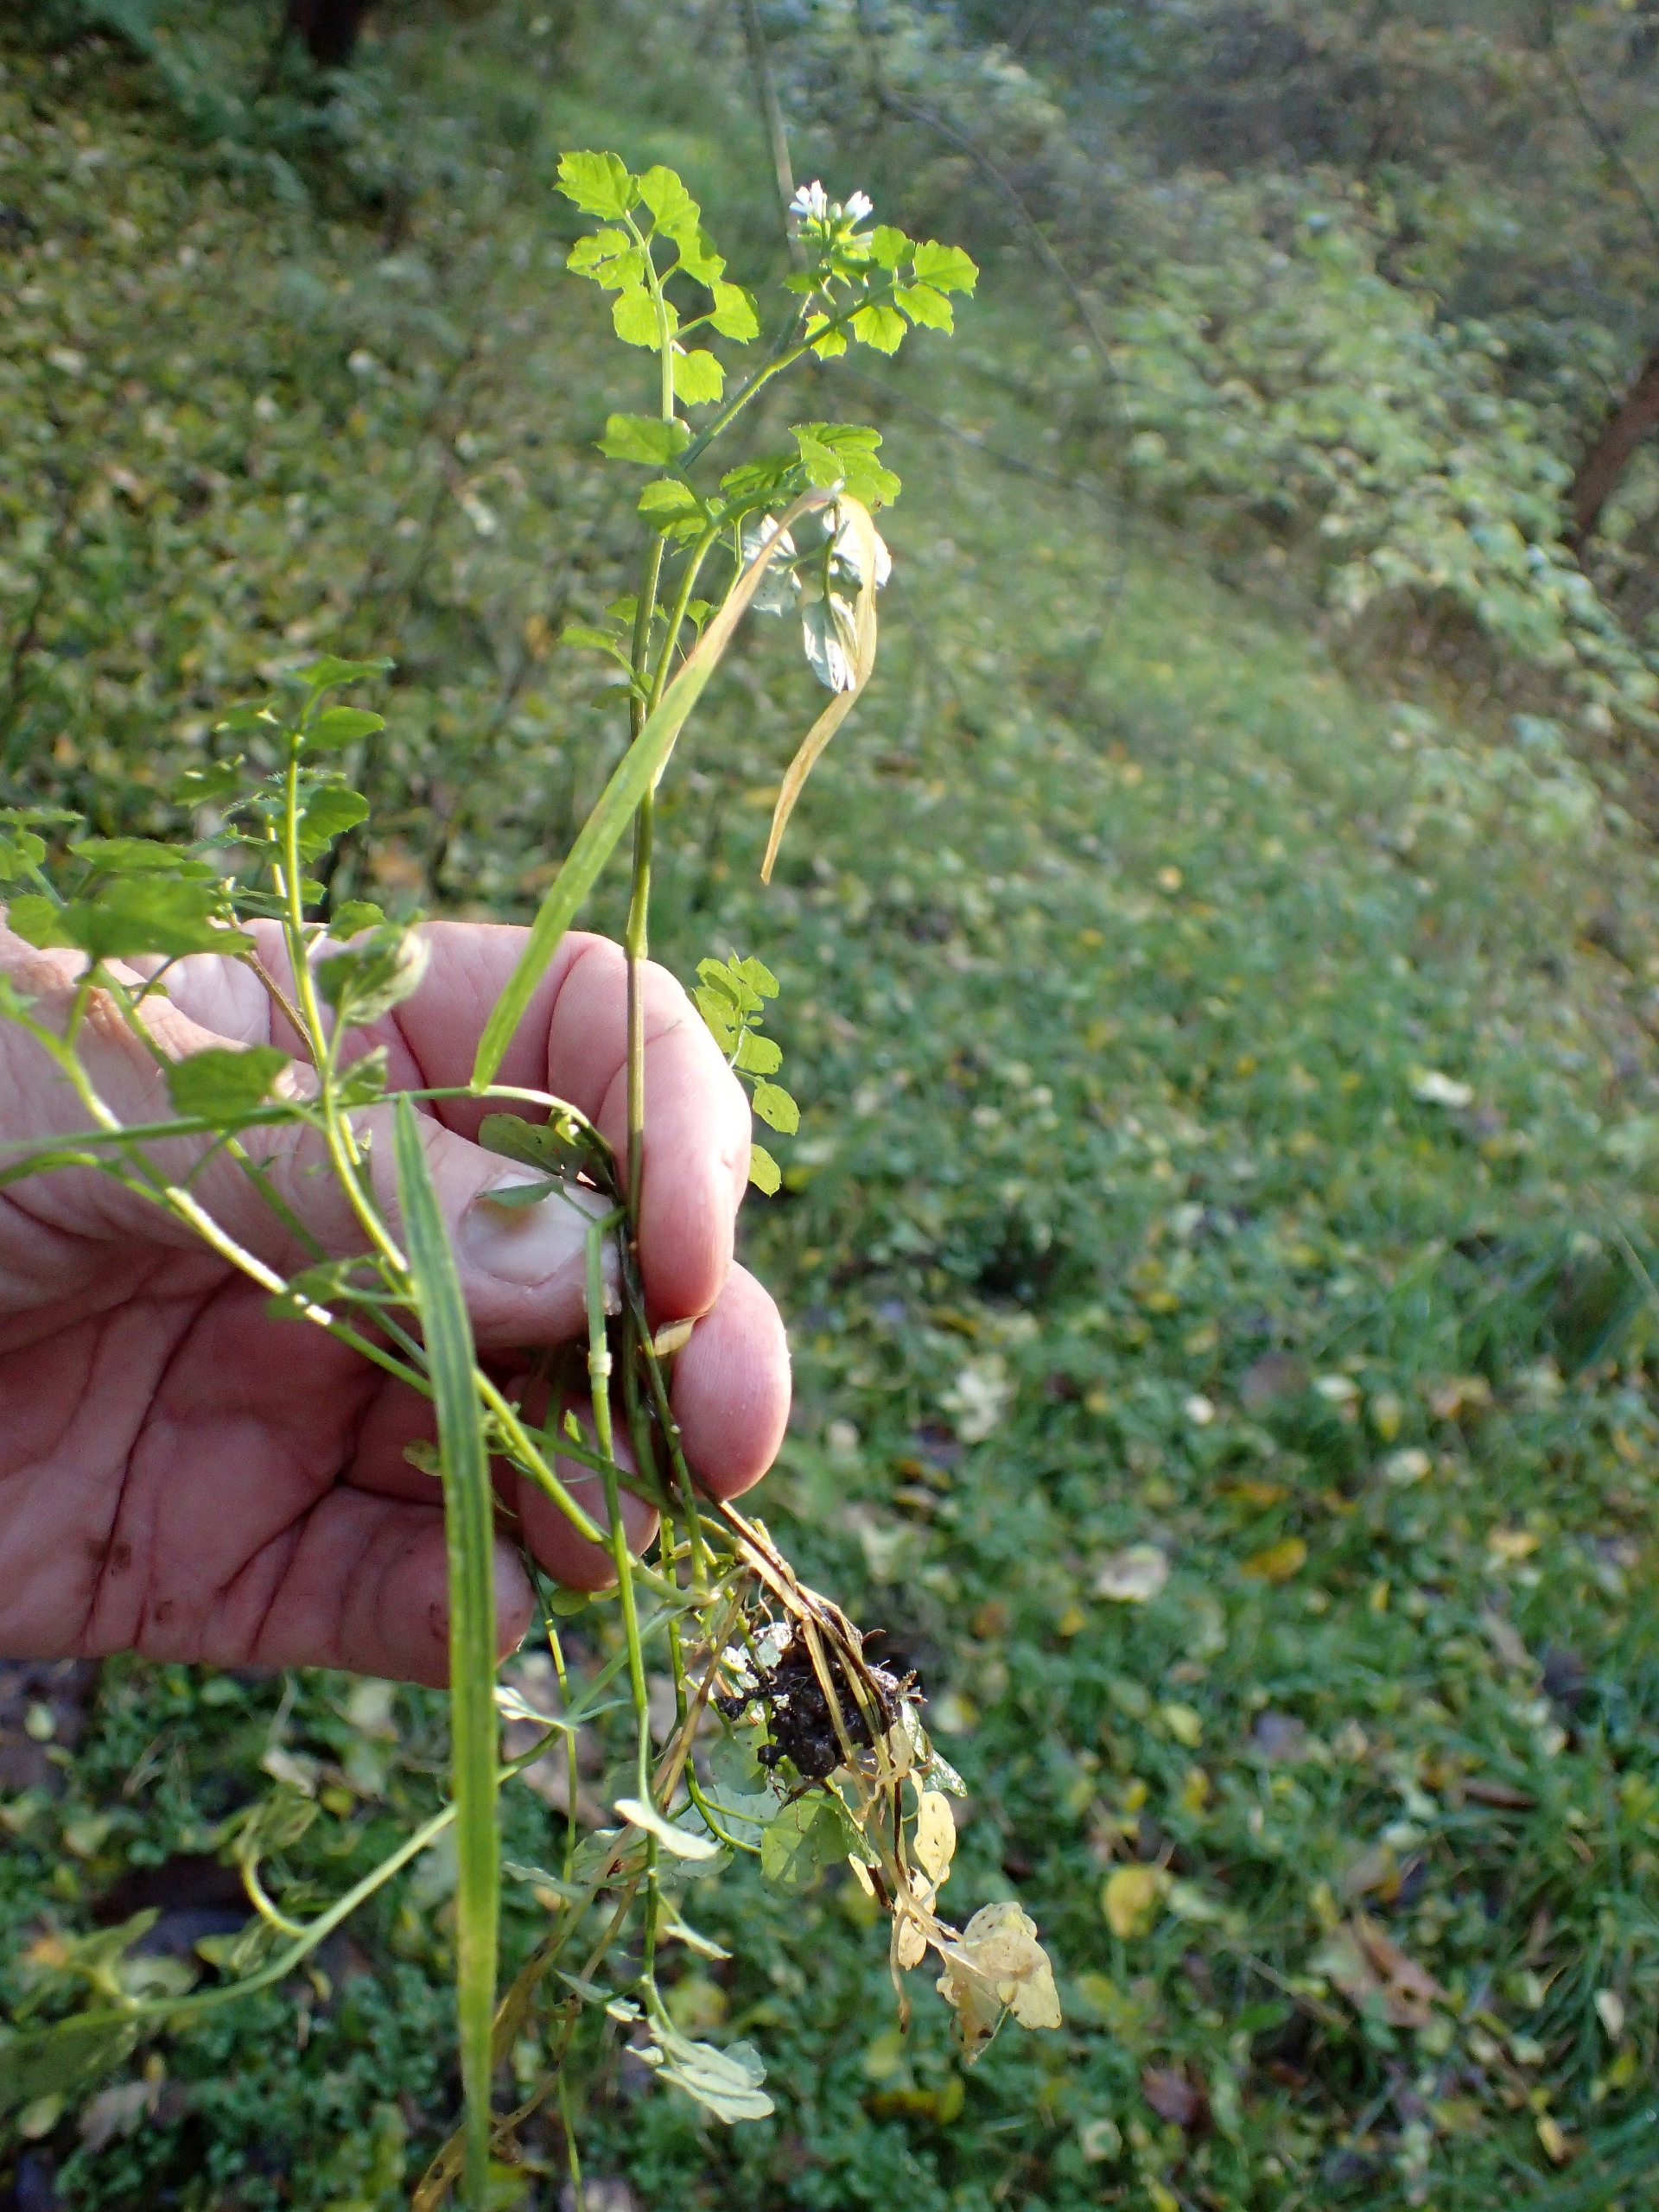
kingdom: Plantae
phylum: Tracheophyta
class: Magnoliopsida
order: Brassicales
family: Brassicaceae
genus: Cardamine
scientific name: Cardamine flexuosa
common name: Skov-springklap
